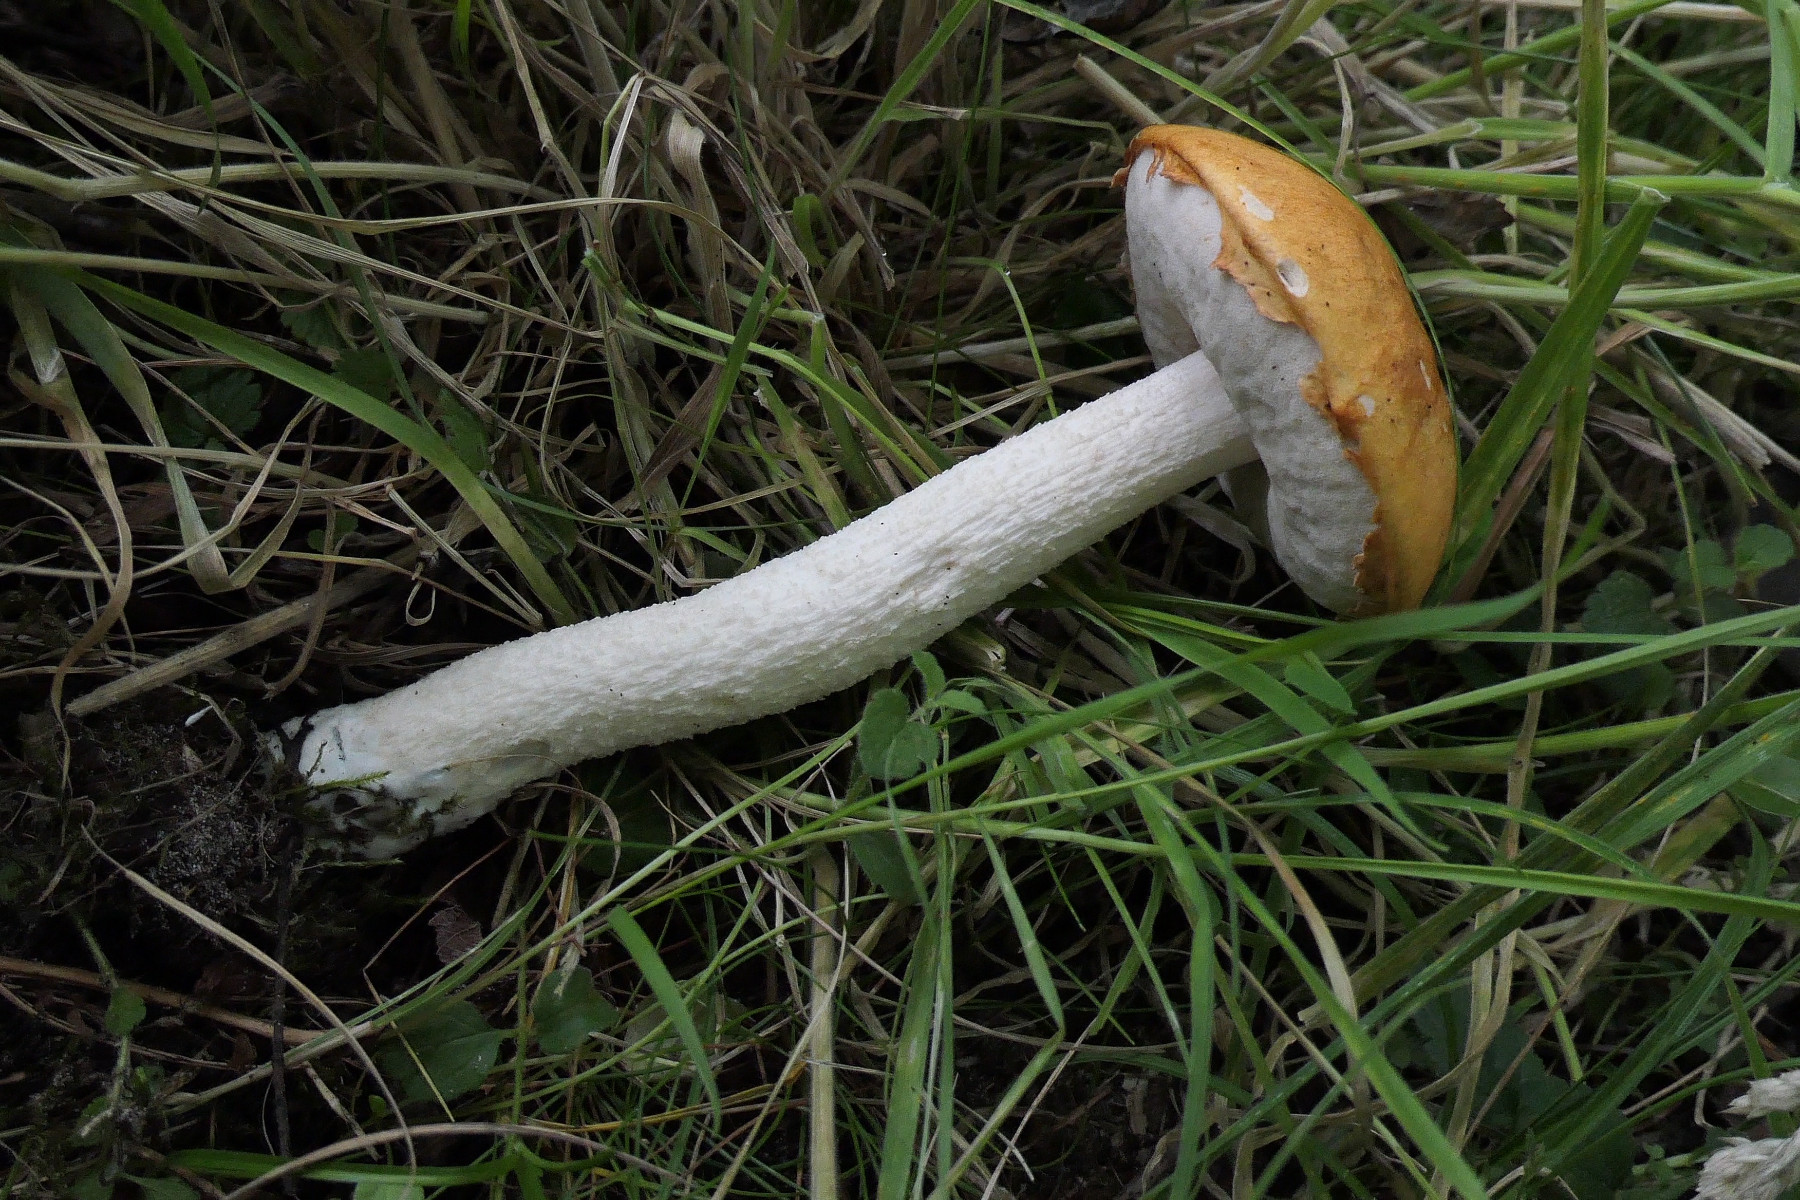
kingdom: Fungi
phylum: Basidiomycota
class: Agaricomycetes
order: Boletales
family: Boletaceae
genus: Leccinum
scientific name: Leccinum albostipitatum
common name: aspe-skælrørhat
